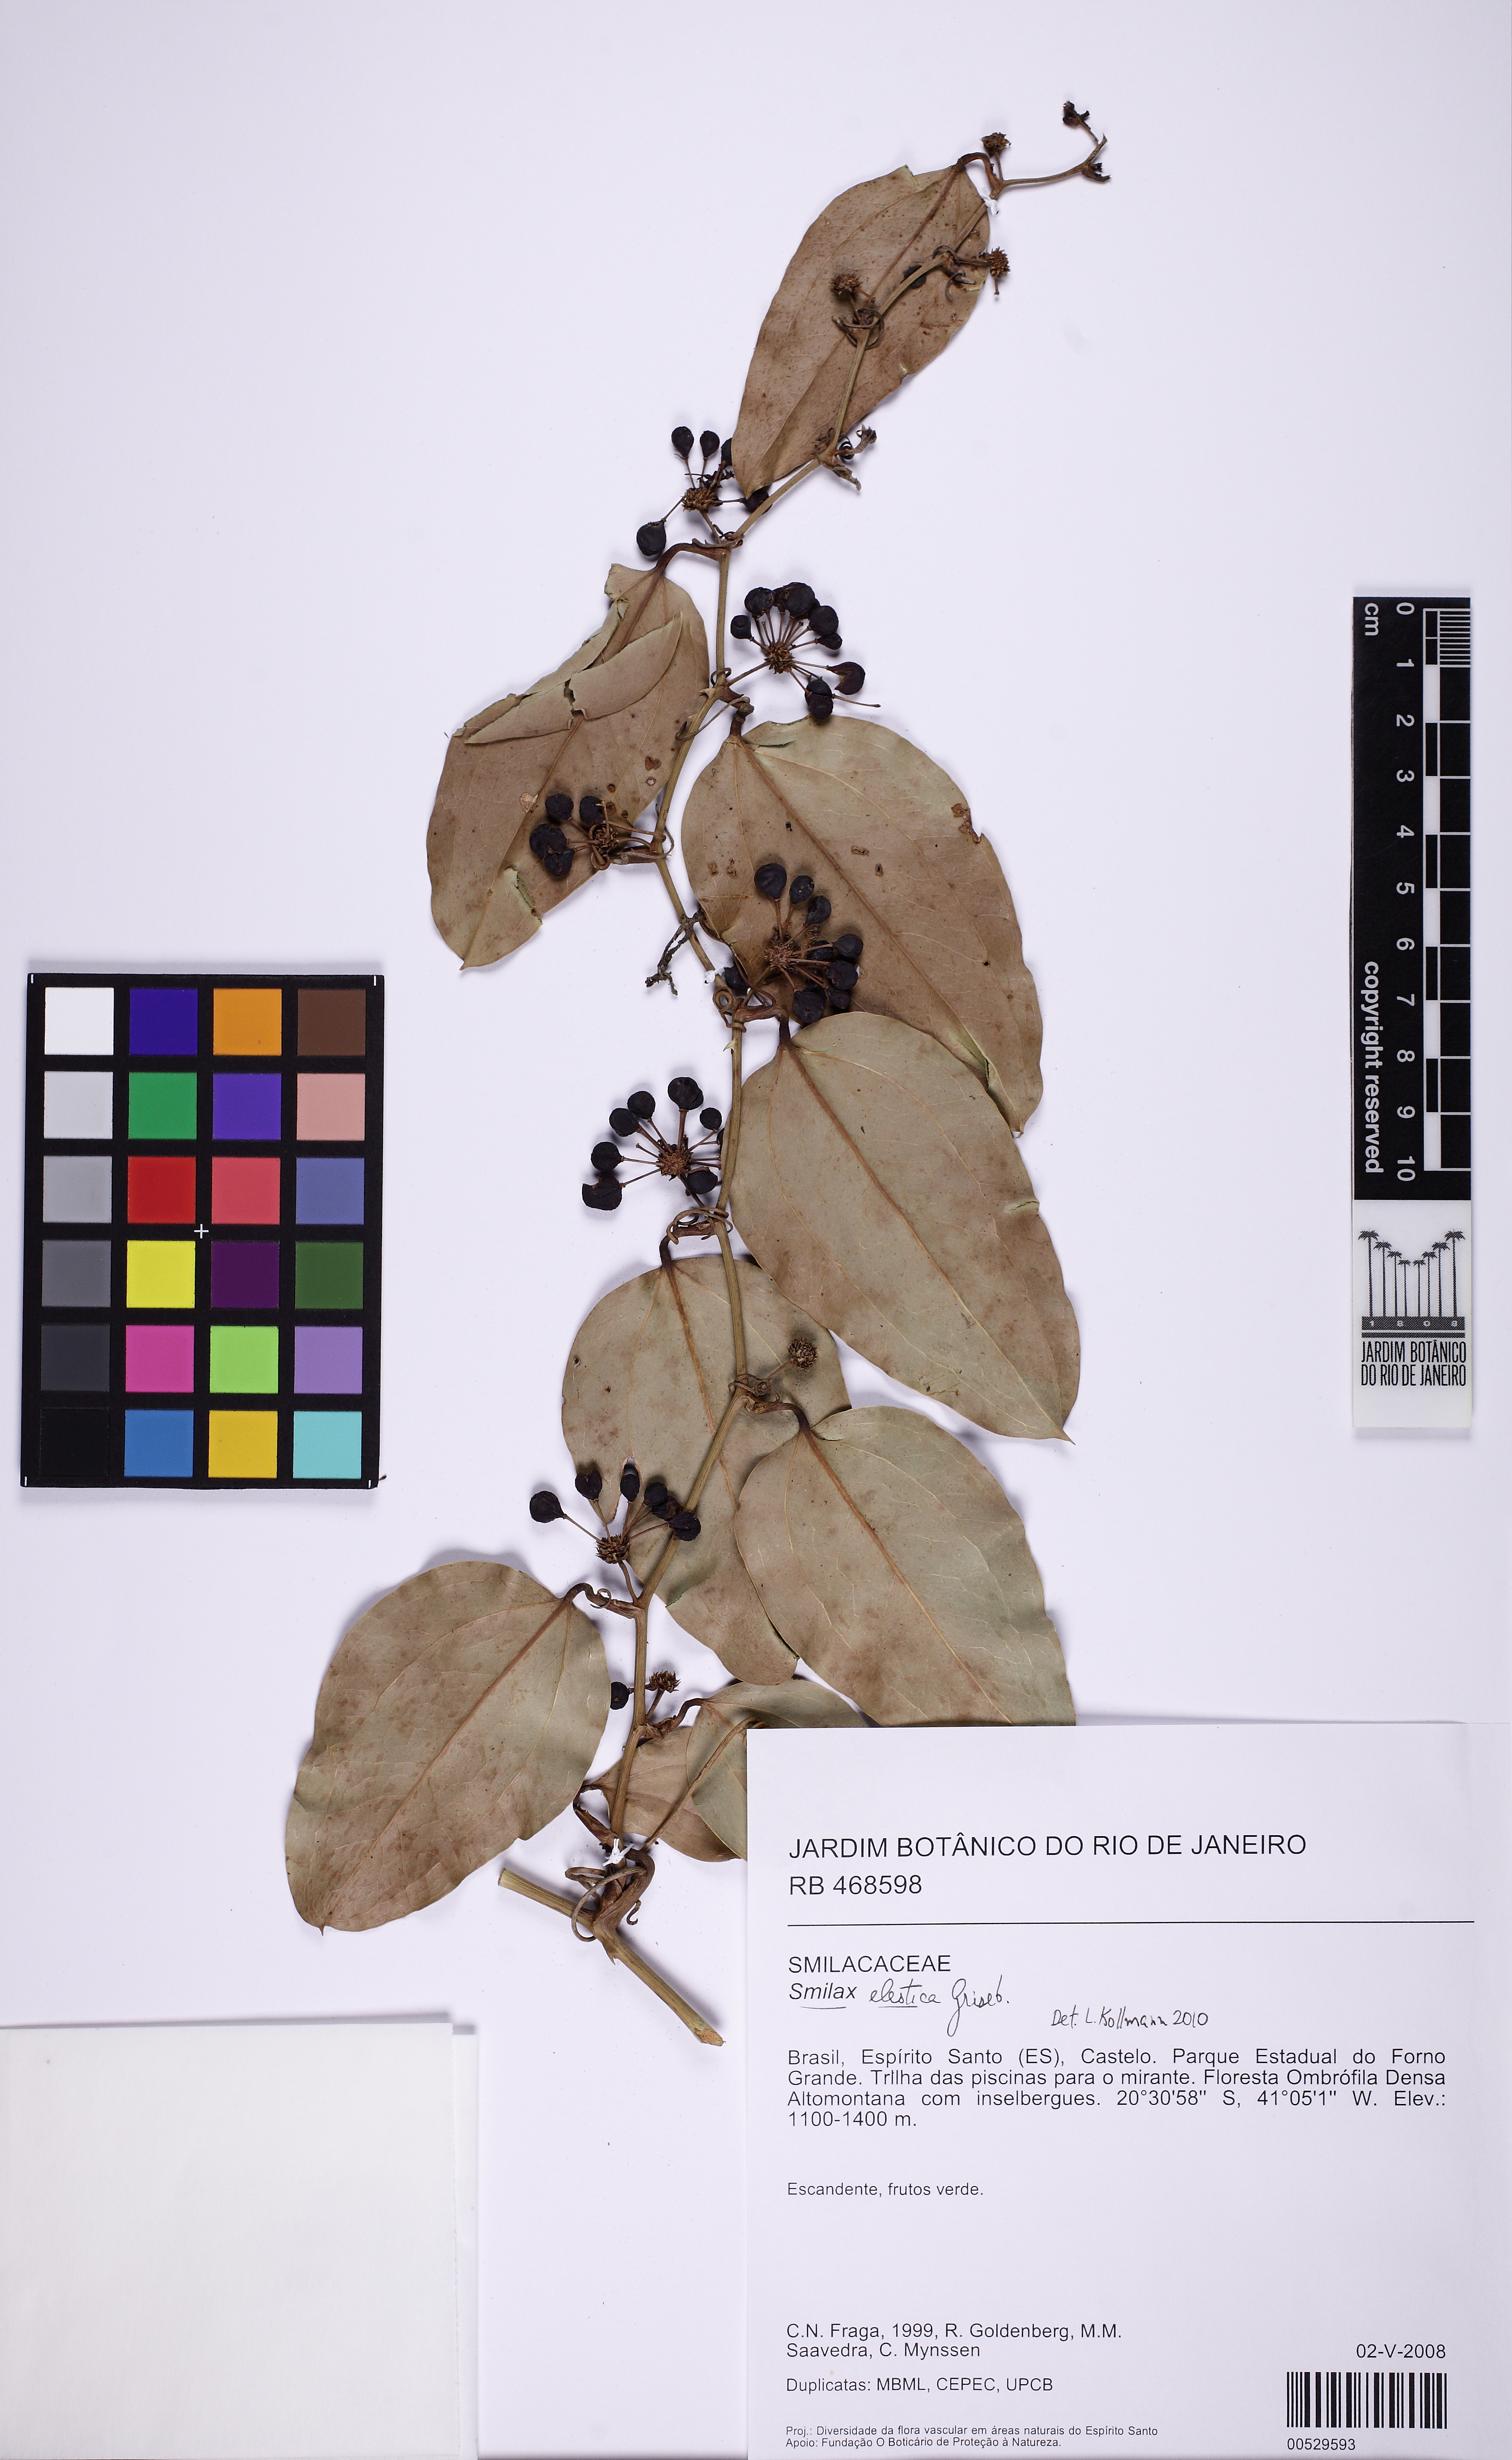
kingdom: Plantae
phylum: Tracheophyta
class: Liliopsida
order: Liliales
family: Smilacaceae
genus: Smilax
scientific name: Smilax elastica
